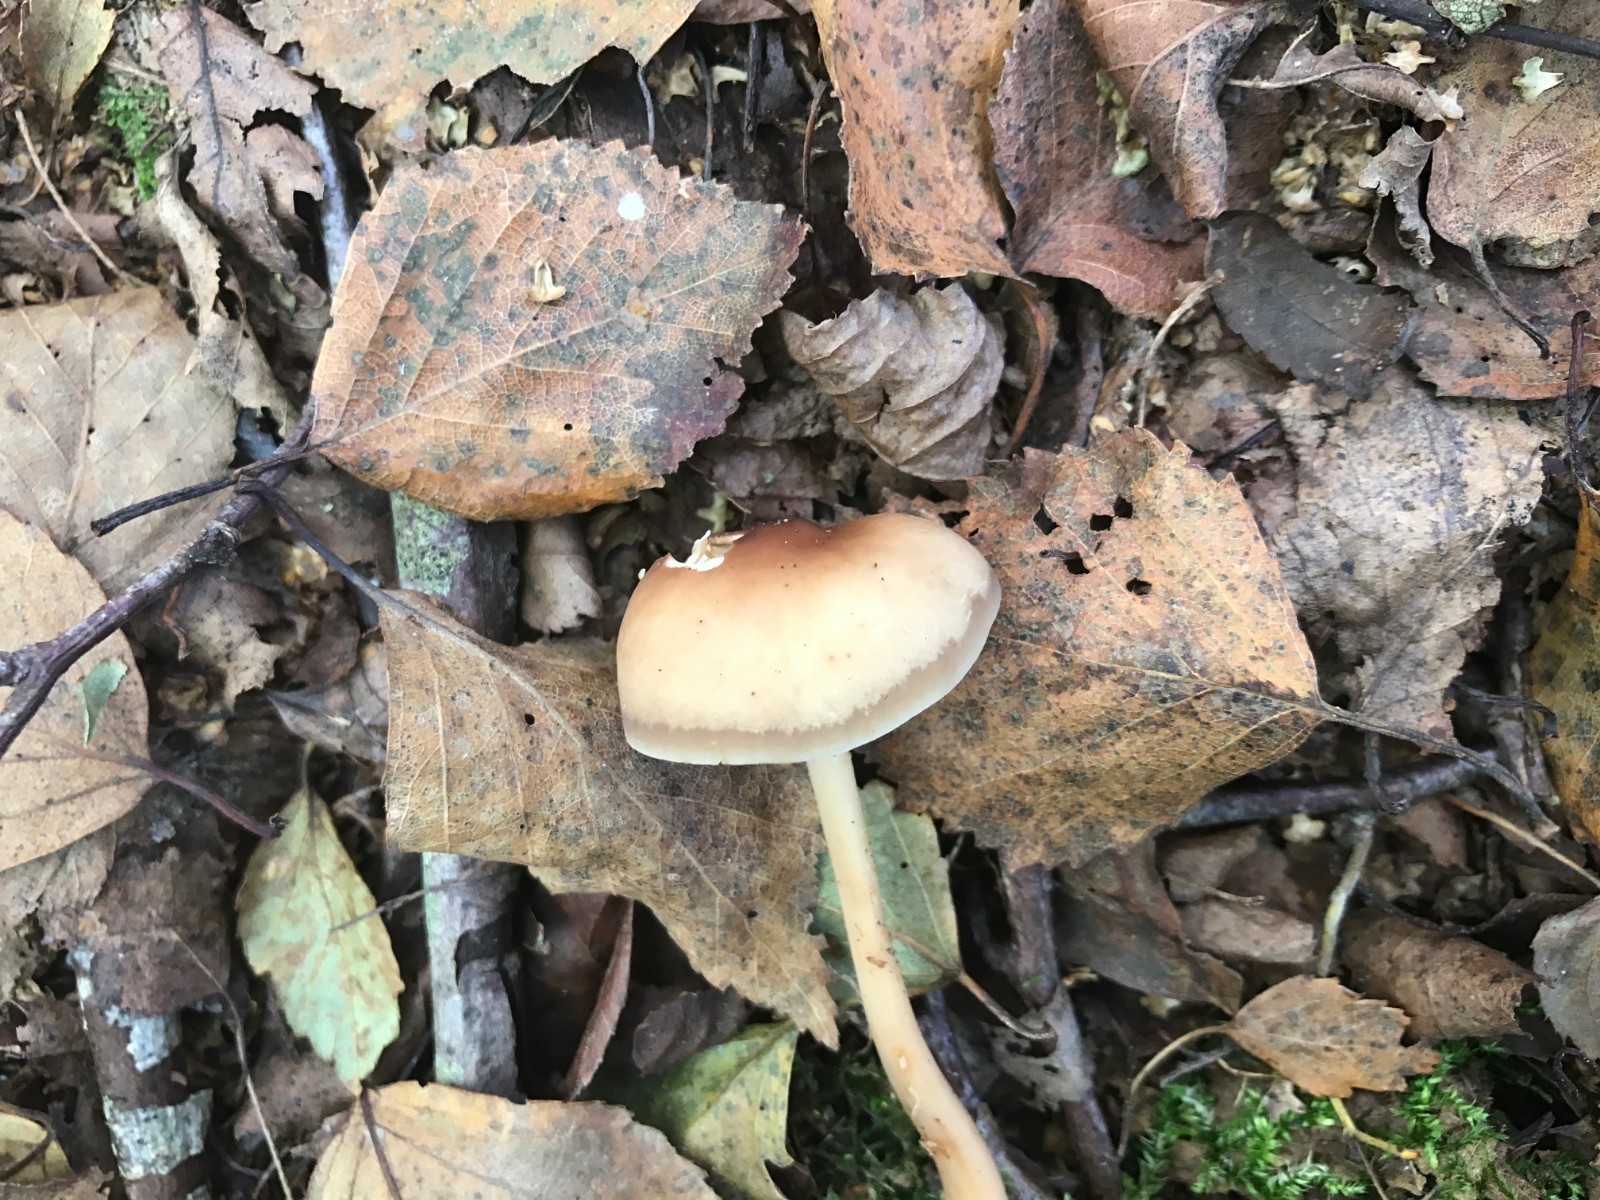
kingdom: Fungi
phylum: Basidiomycota
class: Agaricomycetes
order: Agaricales
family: Omphalotaceae
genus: Gymnopus
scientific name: Gymnopus aquosus
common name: bleg fladhat
